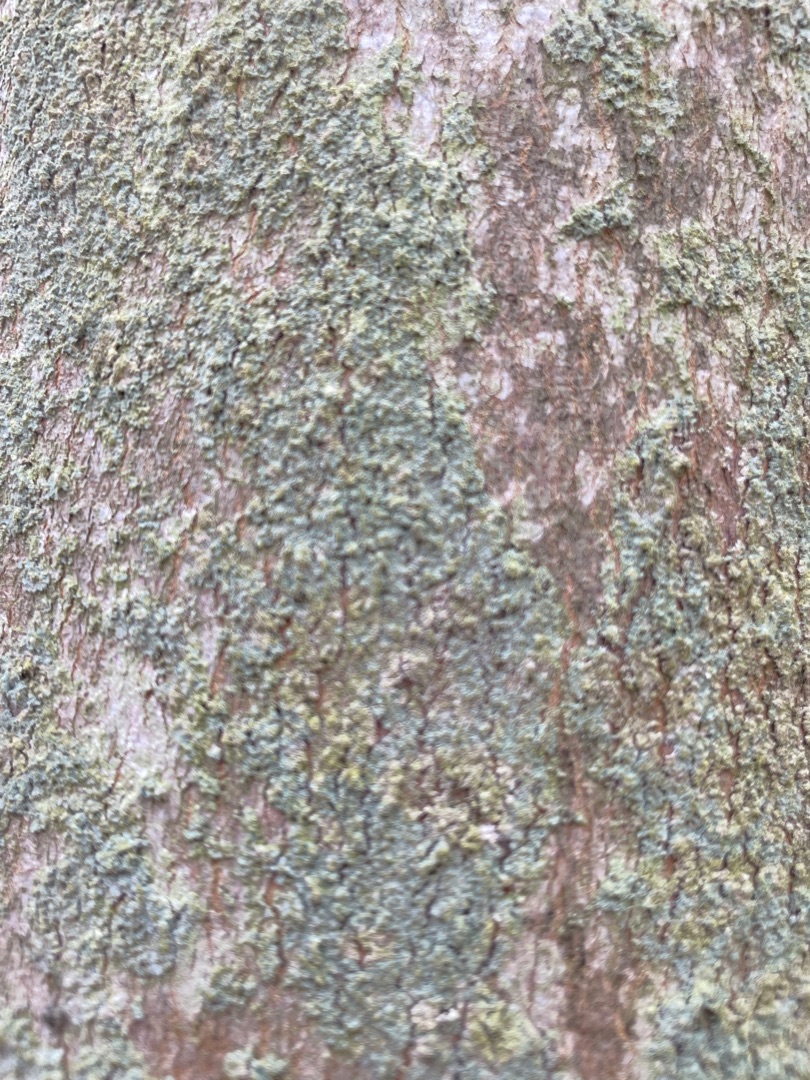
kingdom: Fungi
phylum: Ascomycota
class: Lecanoromycetes
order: Lecanorales
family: Stereocaulaceae
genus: Lepraria
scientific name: Lepraria
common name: Støvlav
